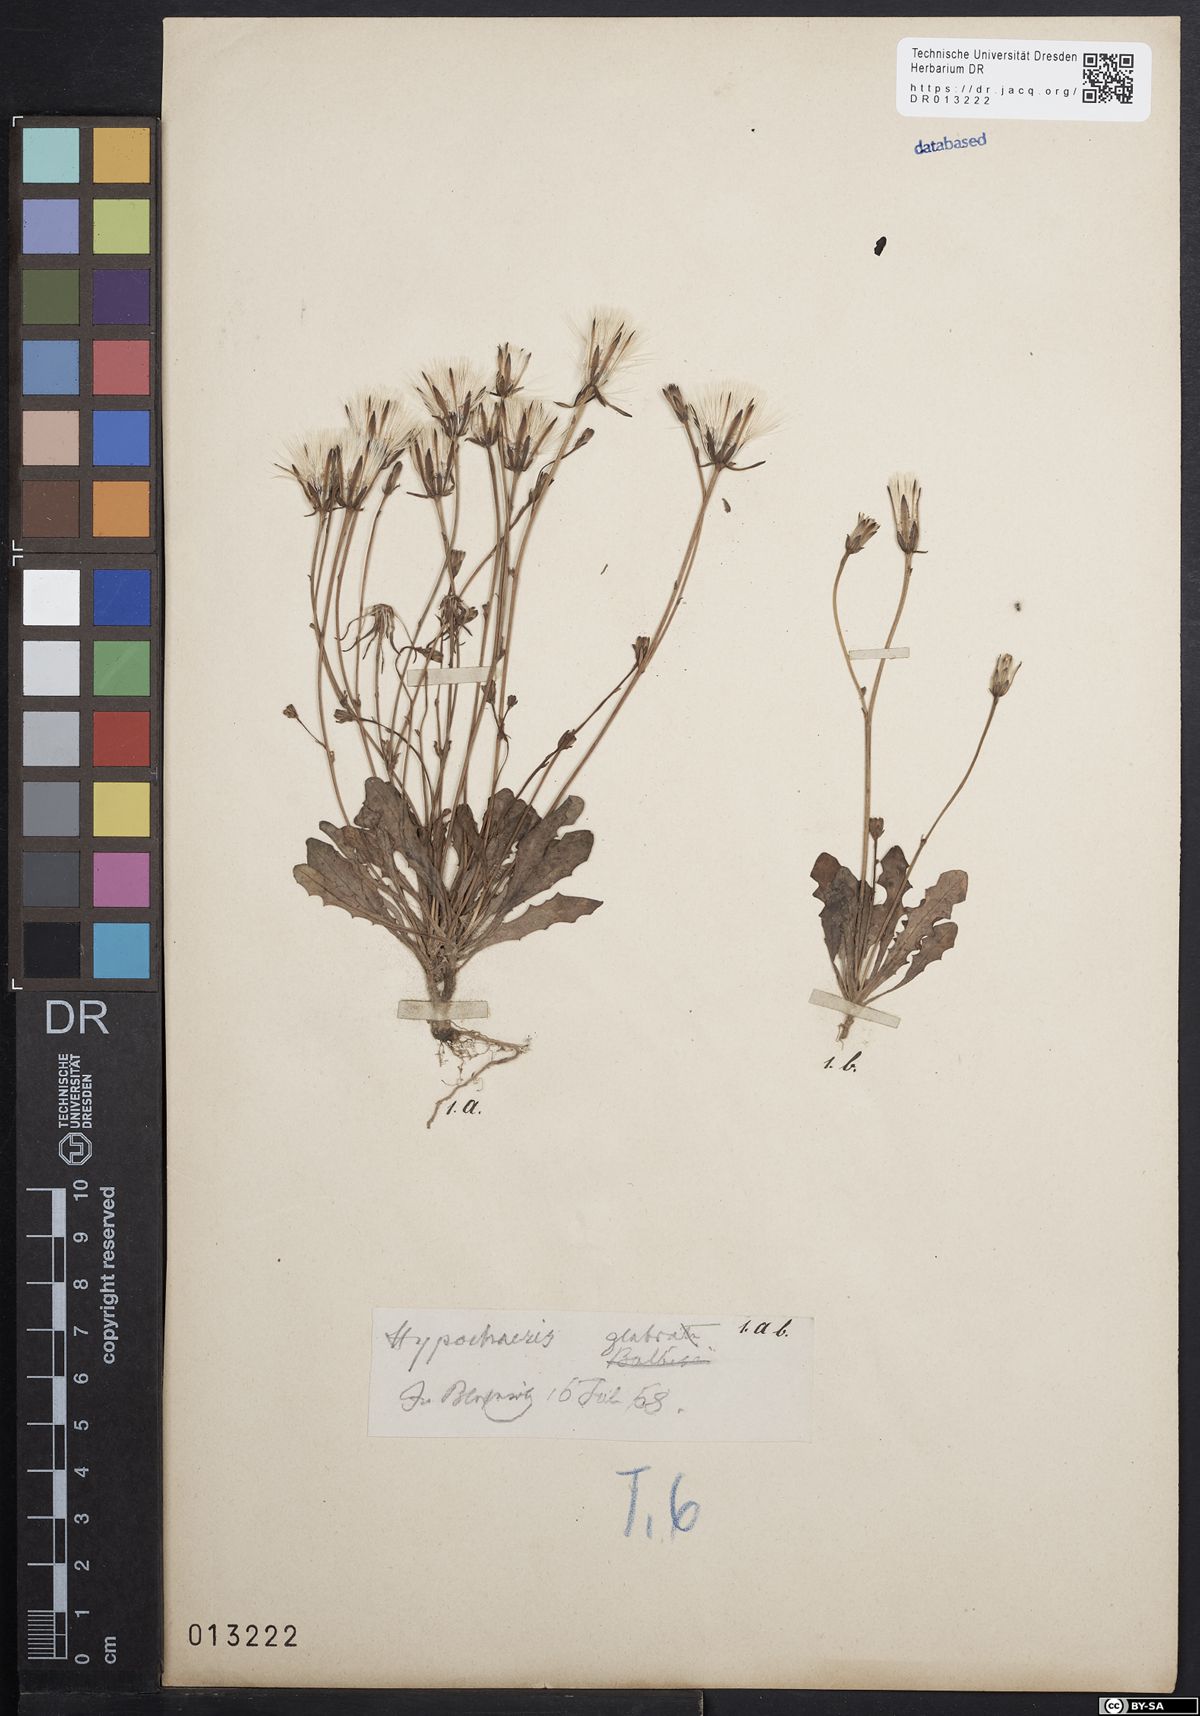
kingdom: Plantae
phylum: Tracheophyta
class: Magnoliopsida
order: Asterales
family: Asteraceae
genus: Hypochaeris
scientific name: Hypochaeris glabra
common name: Smooth catsear
